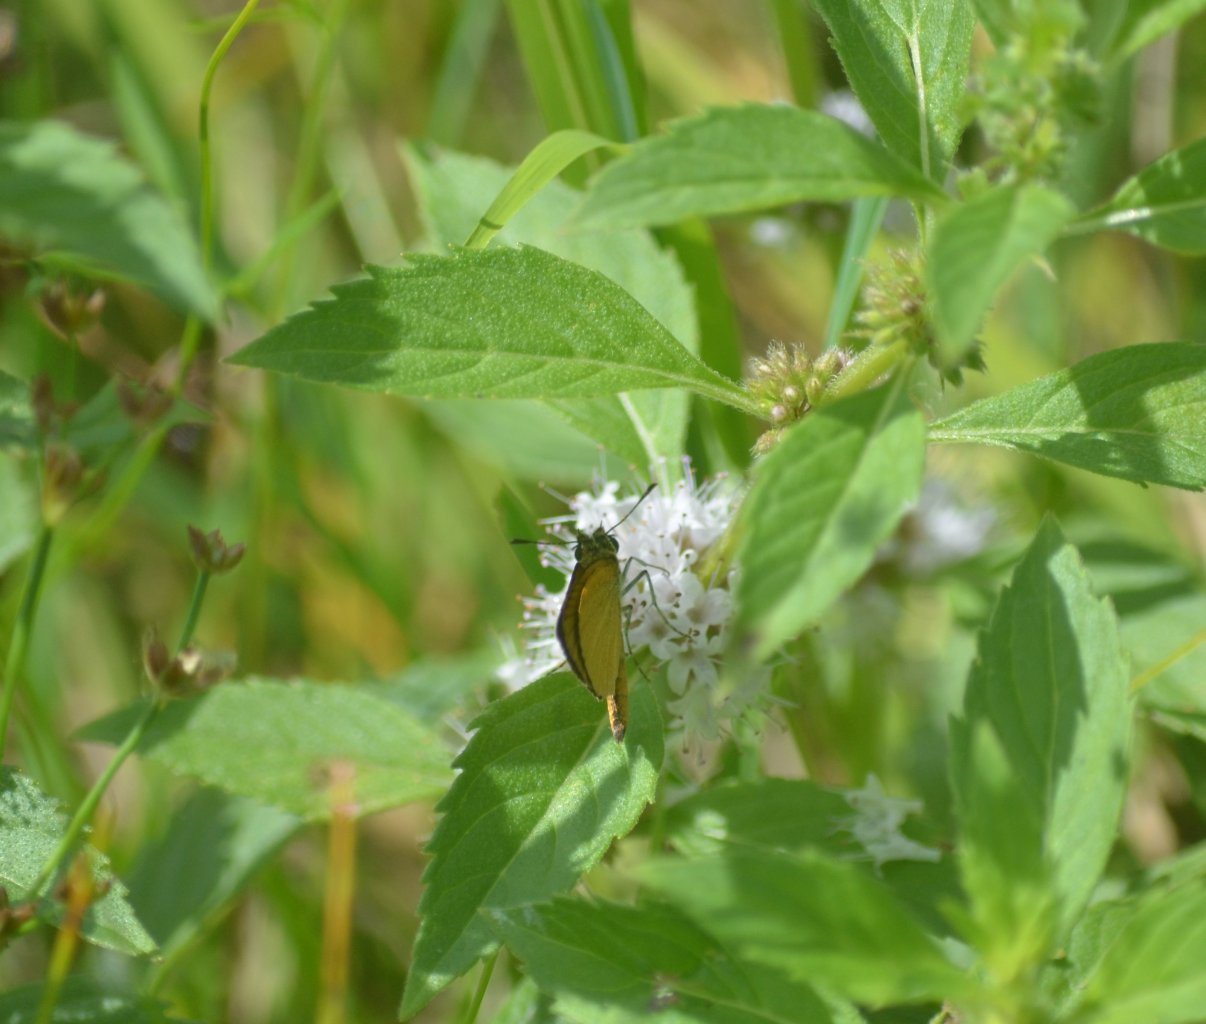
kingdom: Animalia
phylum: Arthropoda
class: Insecta
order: Lepidoptera
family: Hesperiidae
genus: Ancyloxypha
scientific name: Ancyloxypha numitor
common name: Least Skipper
